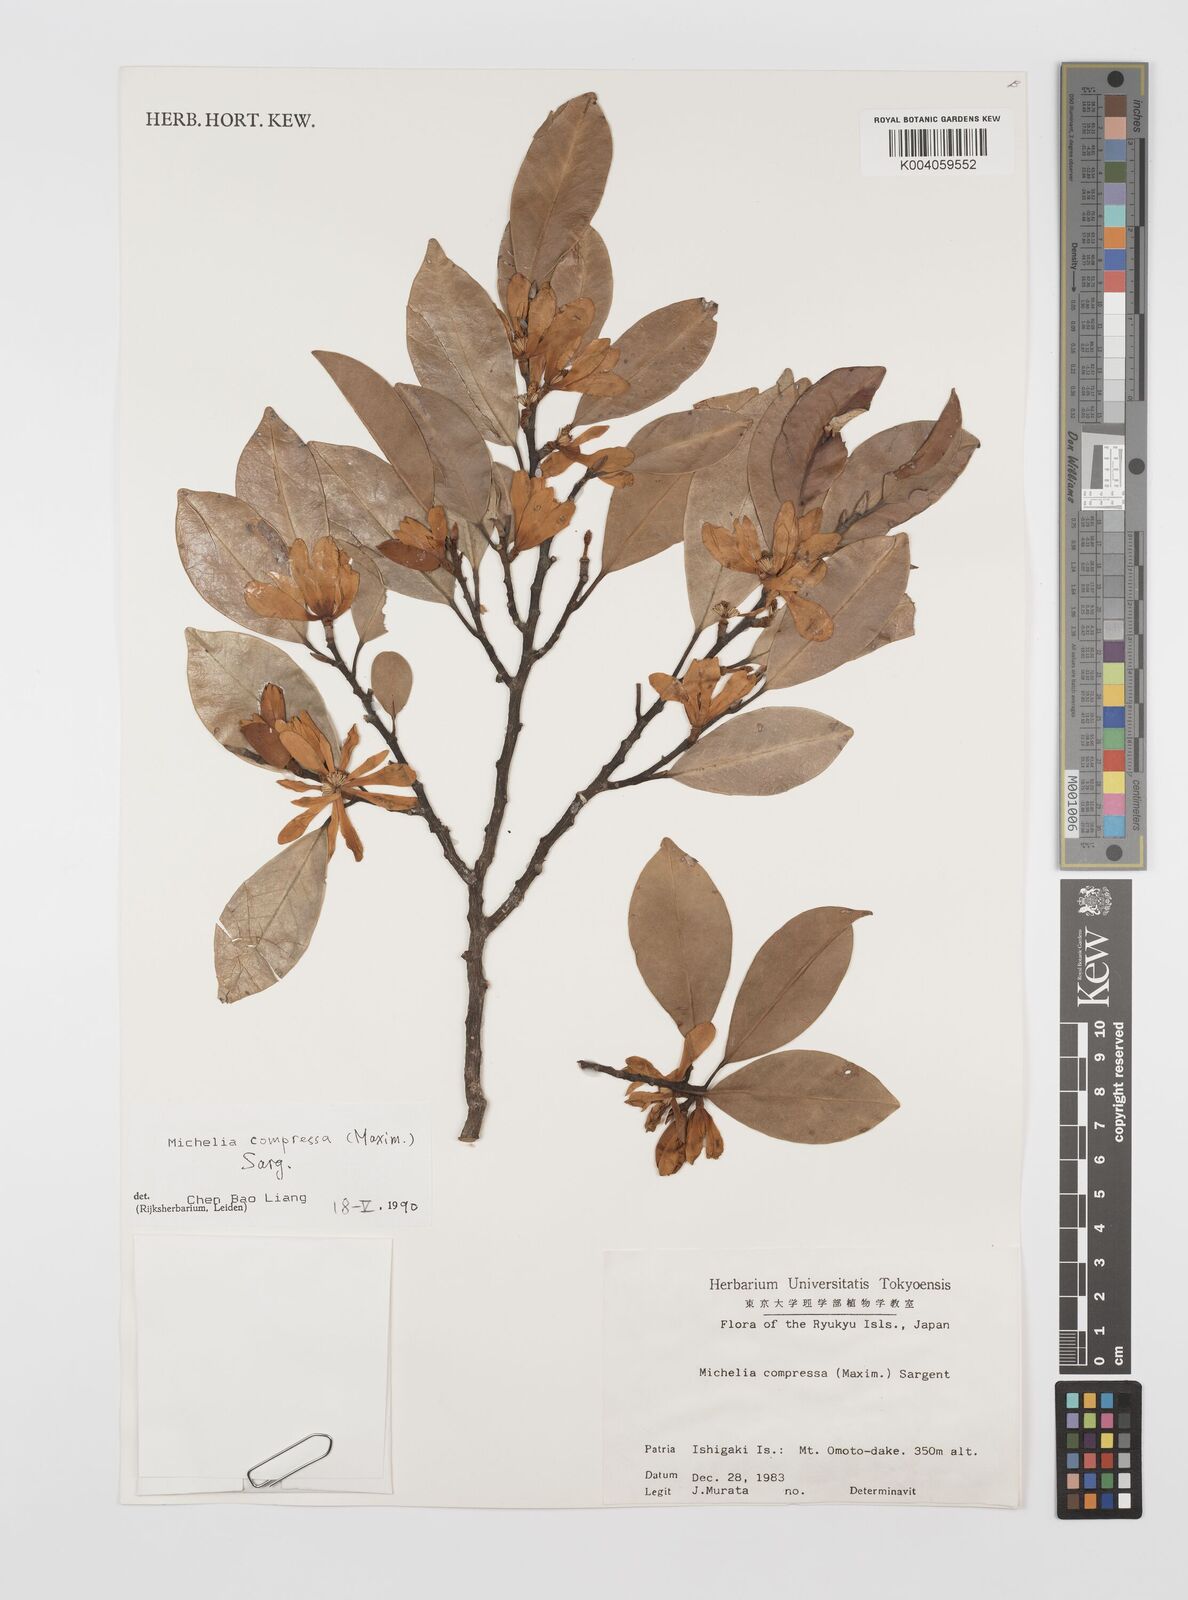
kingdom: Plantae
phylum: Tracheophyta
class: Magnoliopsida
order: Magnoliales
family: Magnoliaceae
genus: Magnolia
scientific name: Magnolia compressa
